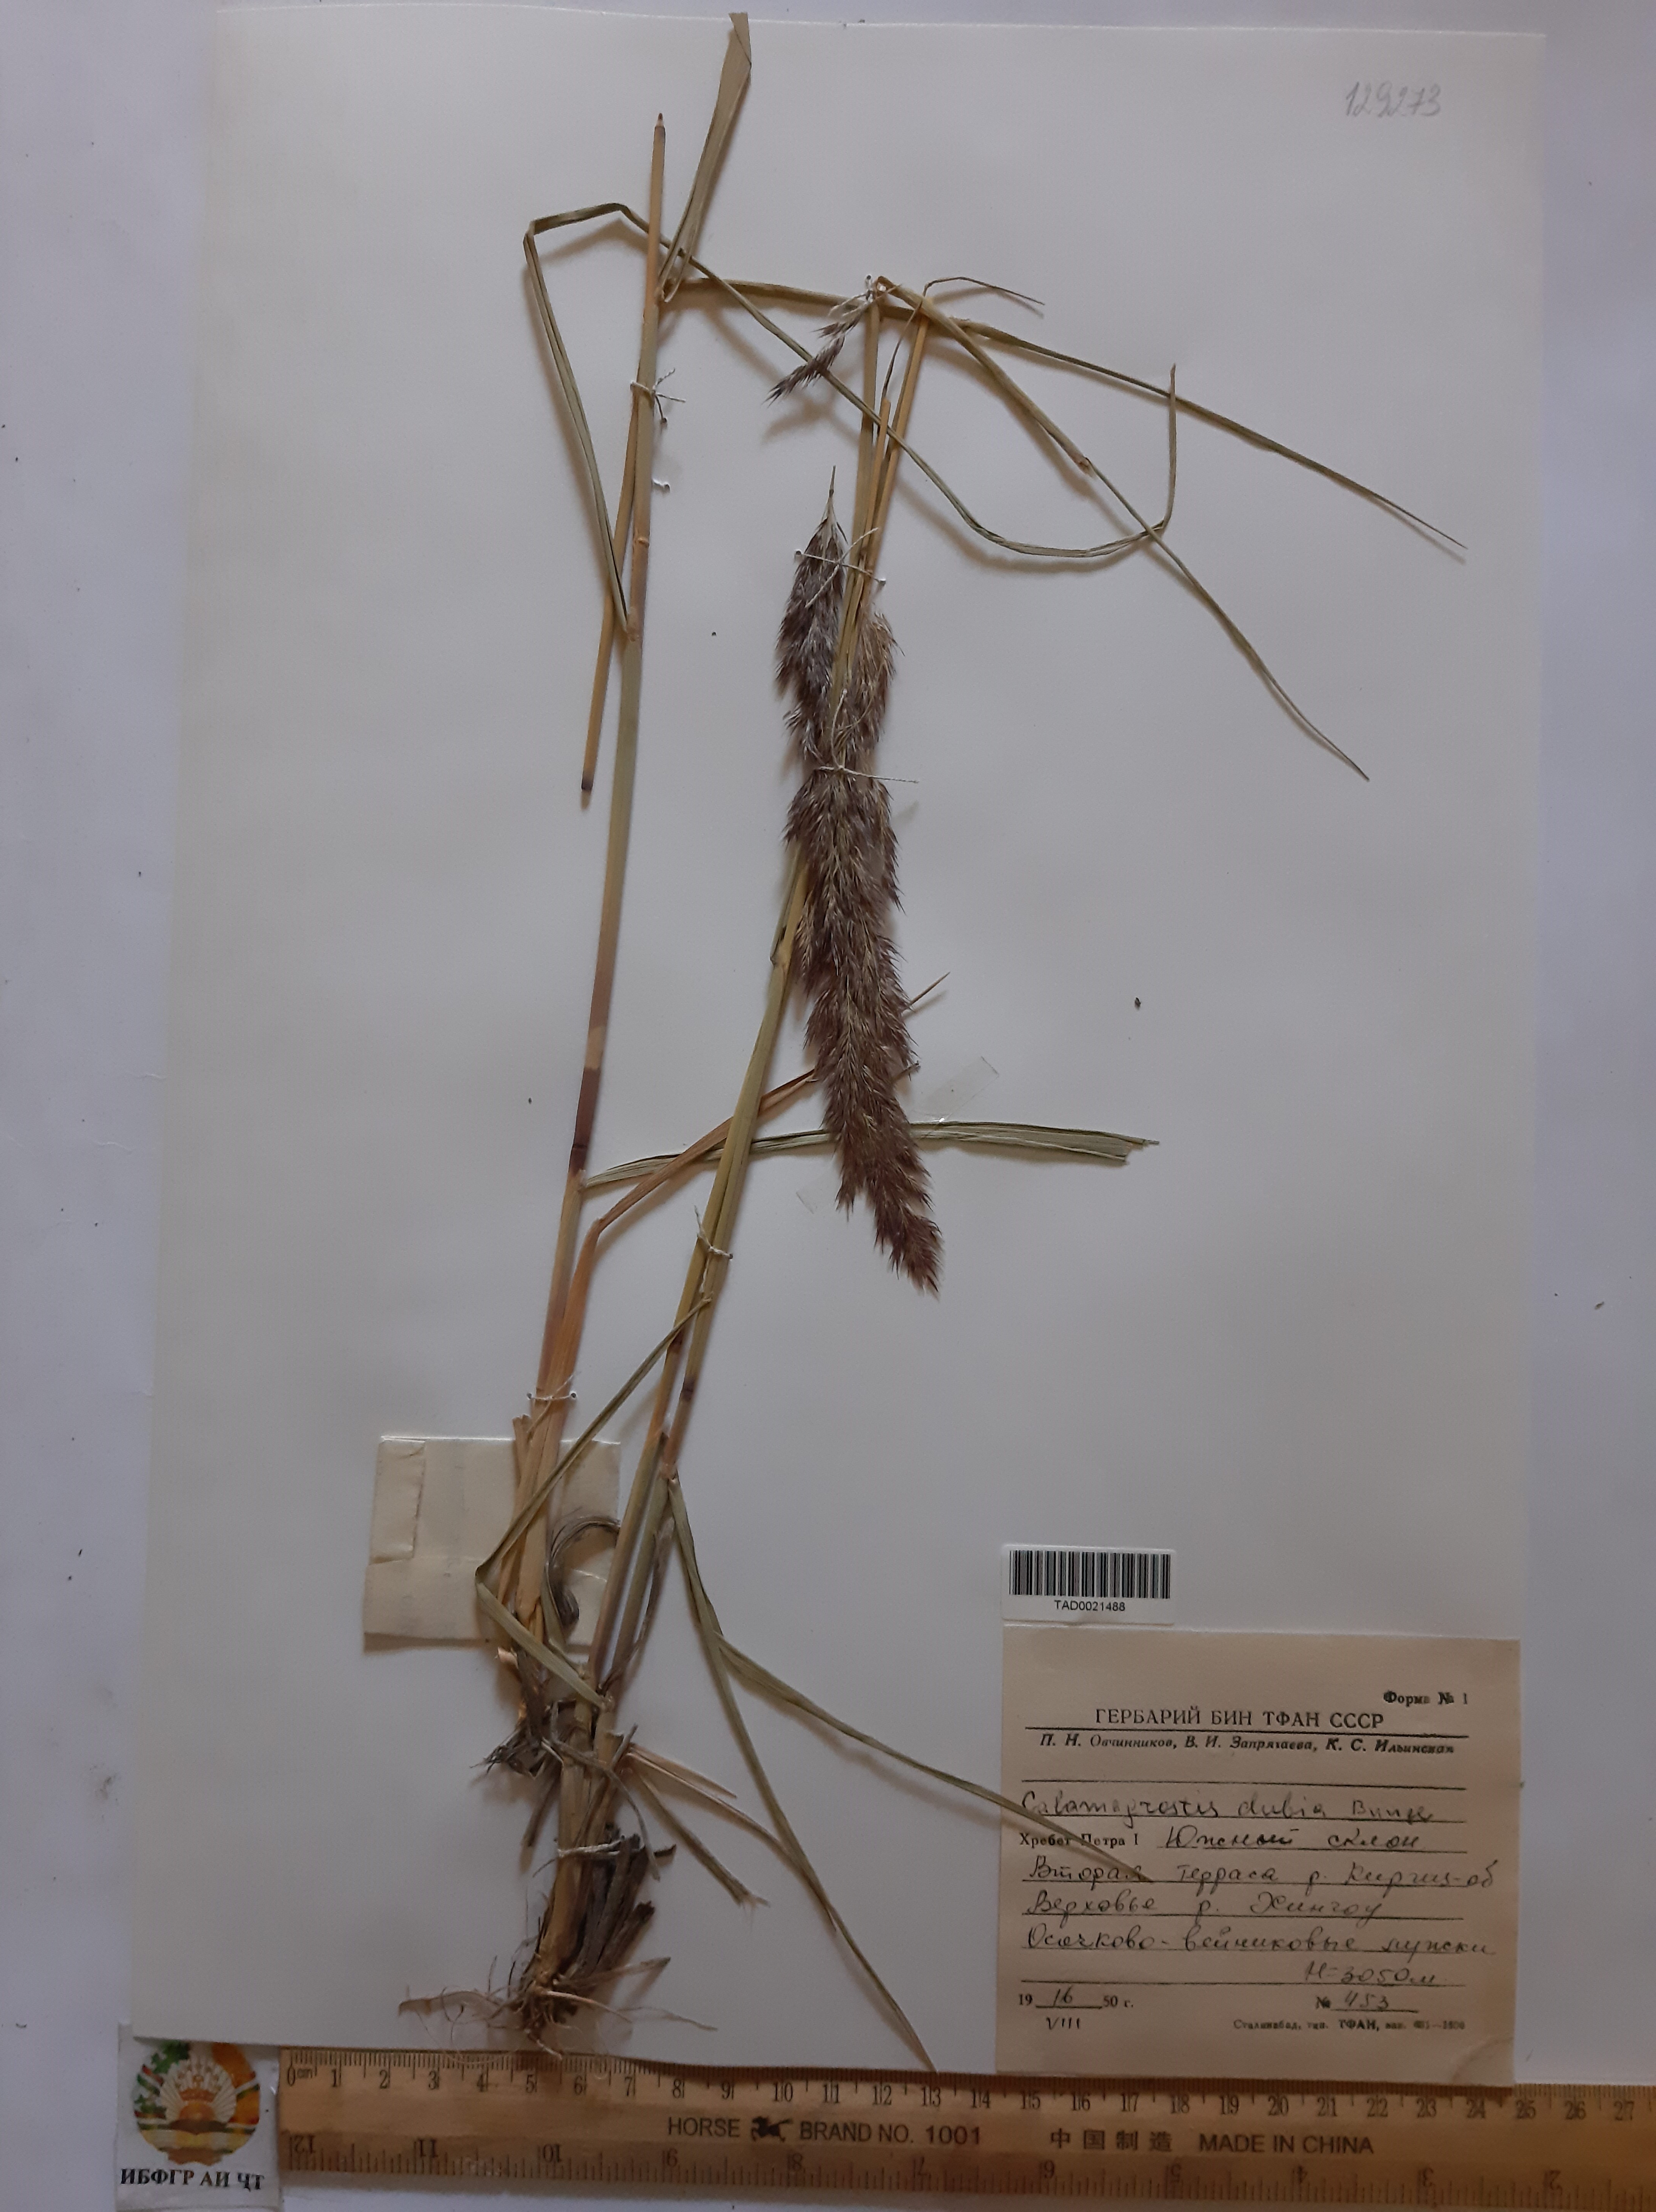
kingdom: Plantae
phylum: Tracheophyta
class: Liliopsida
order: Poales
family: Poaceae
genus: Calamagrostis
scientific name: Calamagrostis pseudophragmites
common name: Coastal small-reed
